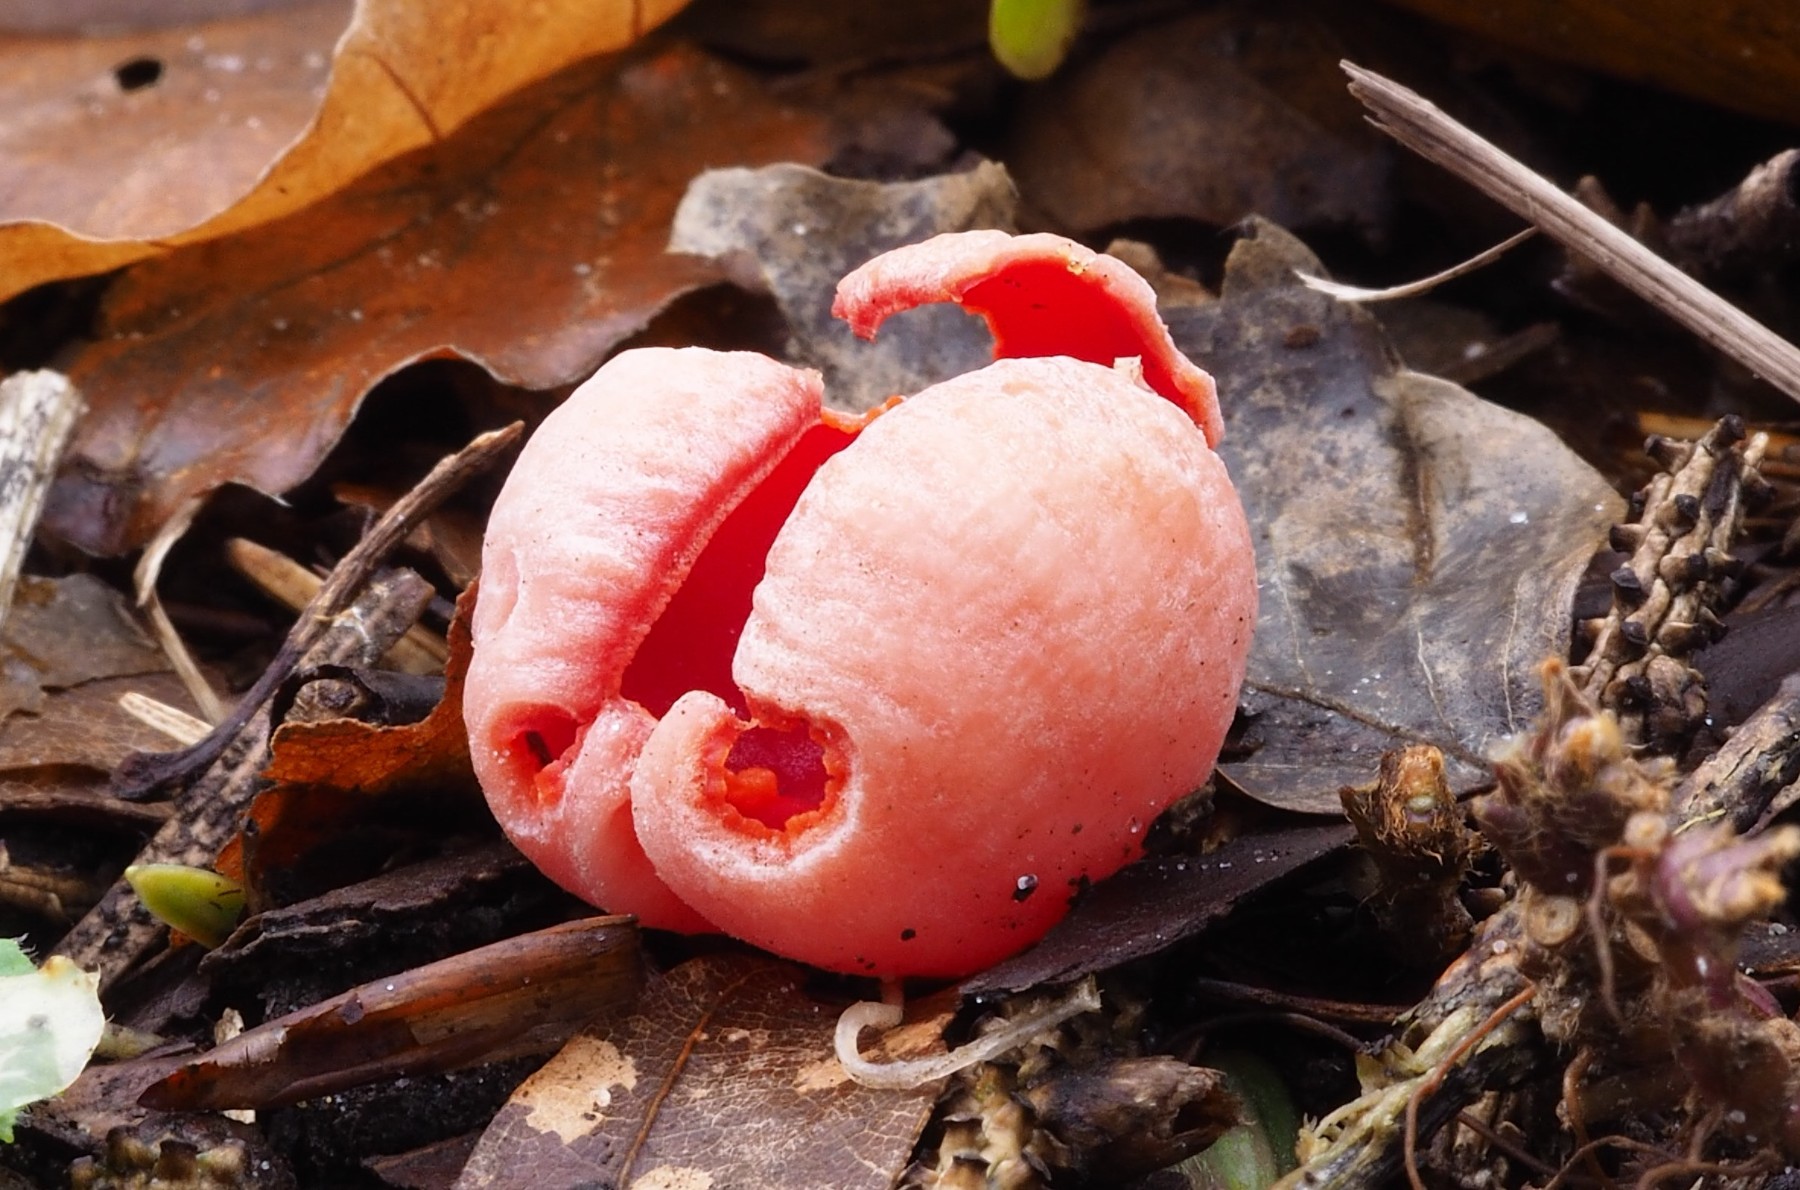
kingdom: Fungi
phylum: Ascomycota
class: Pezizomycetes
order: Pezizales
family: Sarcoscyphaceae
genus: Sarcoscypha
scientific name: Sarcoscypha coccinea
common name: skarlagen-pragtbæger
